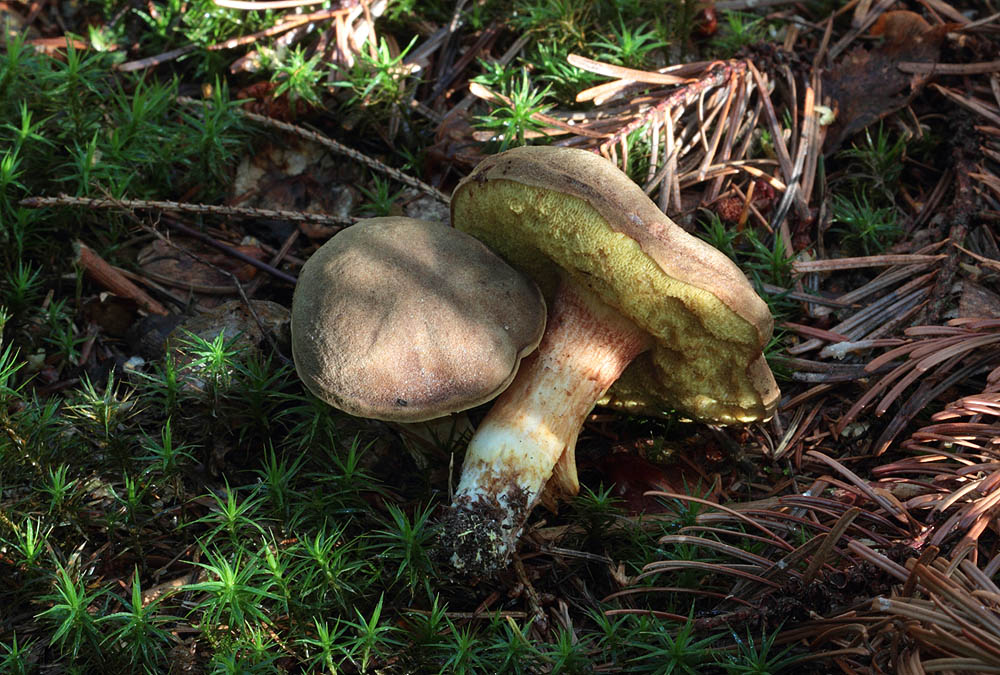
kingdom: Fungi
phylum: Basidiomycota
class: Agaricomycetes
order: Boletales
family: Boletaceae
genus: Xerocomus
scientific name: Xerocomus ferrugineus
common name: vaskeskinds-rørhat
